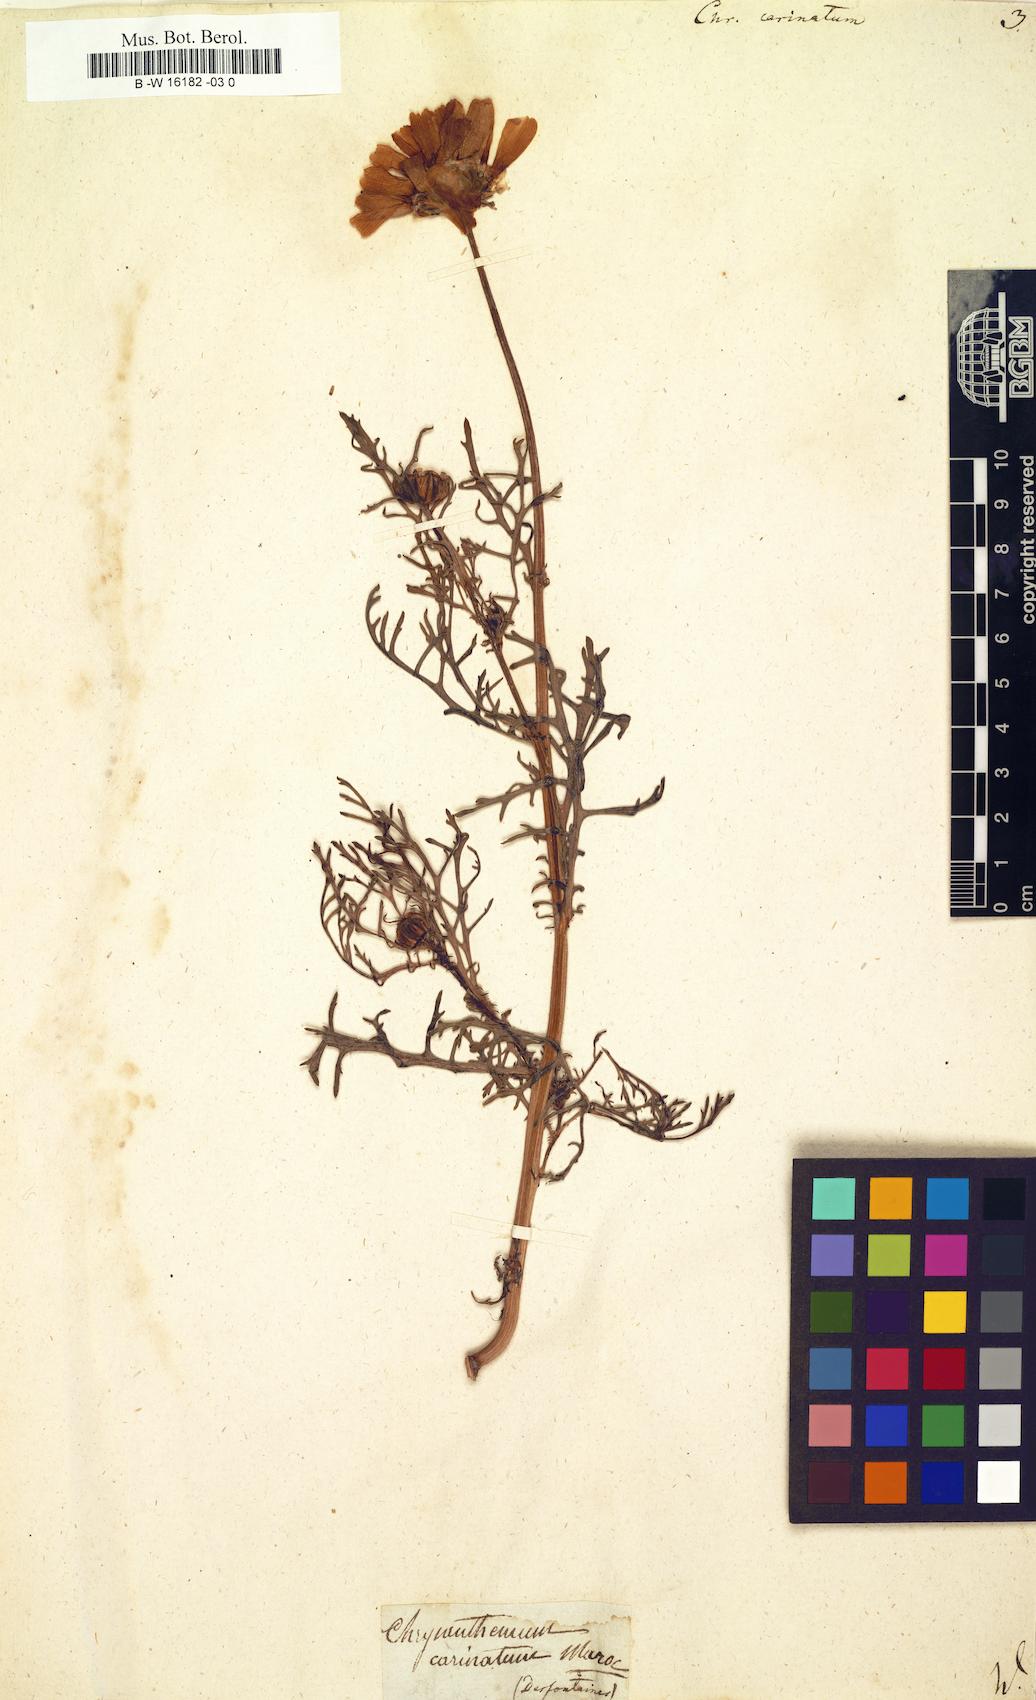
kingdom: Plantae
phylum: Tracheophyta
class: Magnoliopsida
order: Asterales
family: Asteraceae
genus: Glebionis
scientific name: Glebionis carinata
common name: Painted daisy
